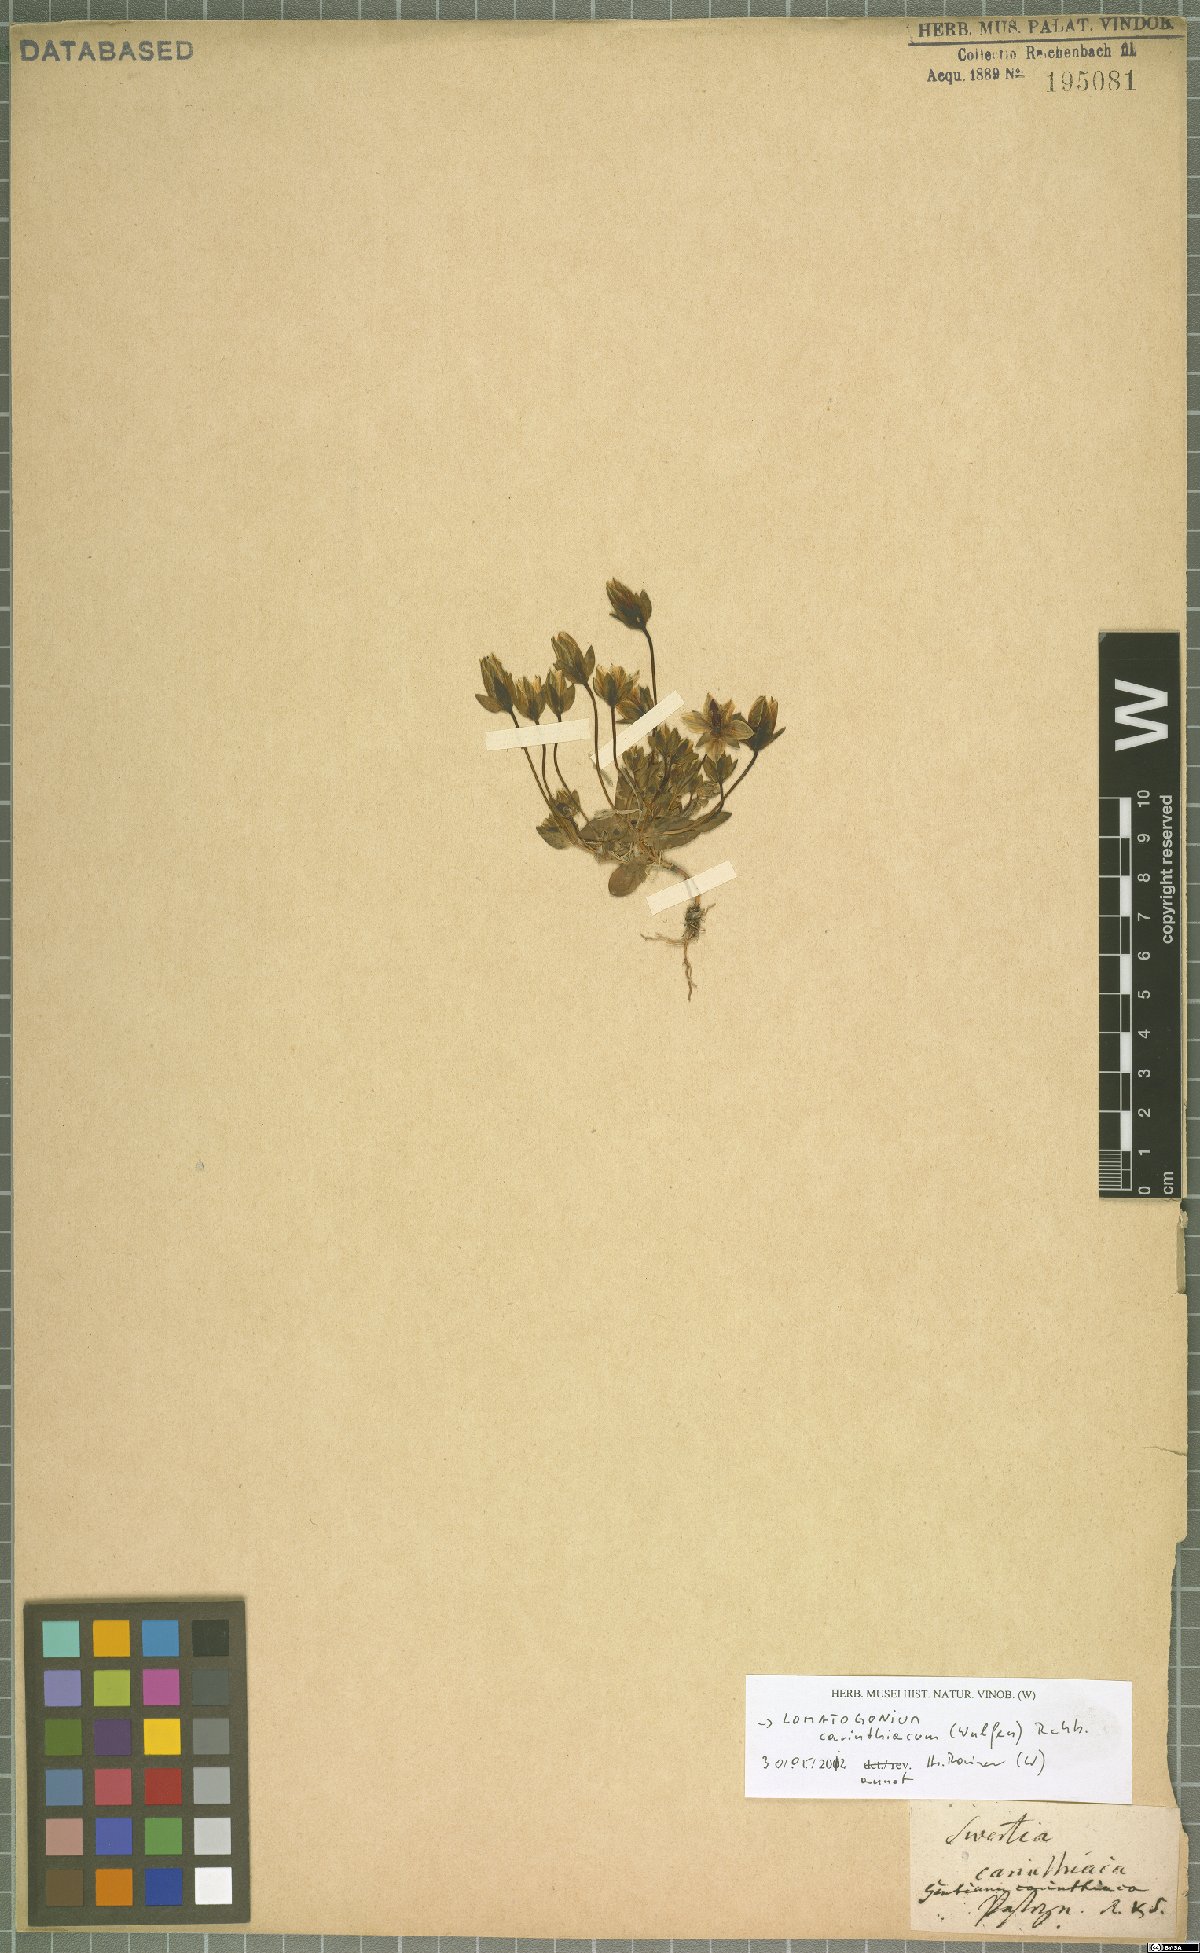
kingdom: Plantae
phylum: Tracheophyta
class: Magnoliopsida
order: Gentianales
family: Gentianaceae
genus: Lomatogonium
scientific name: Lomatogonium carinthiacum
